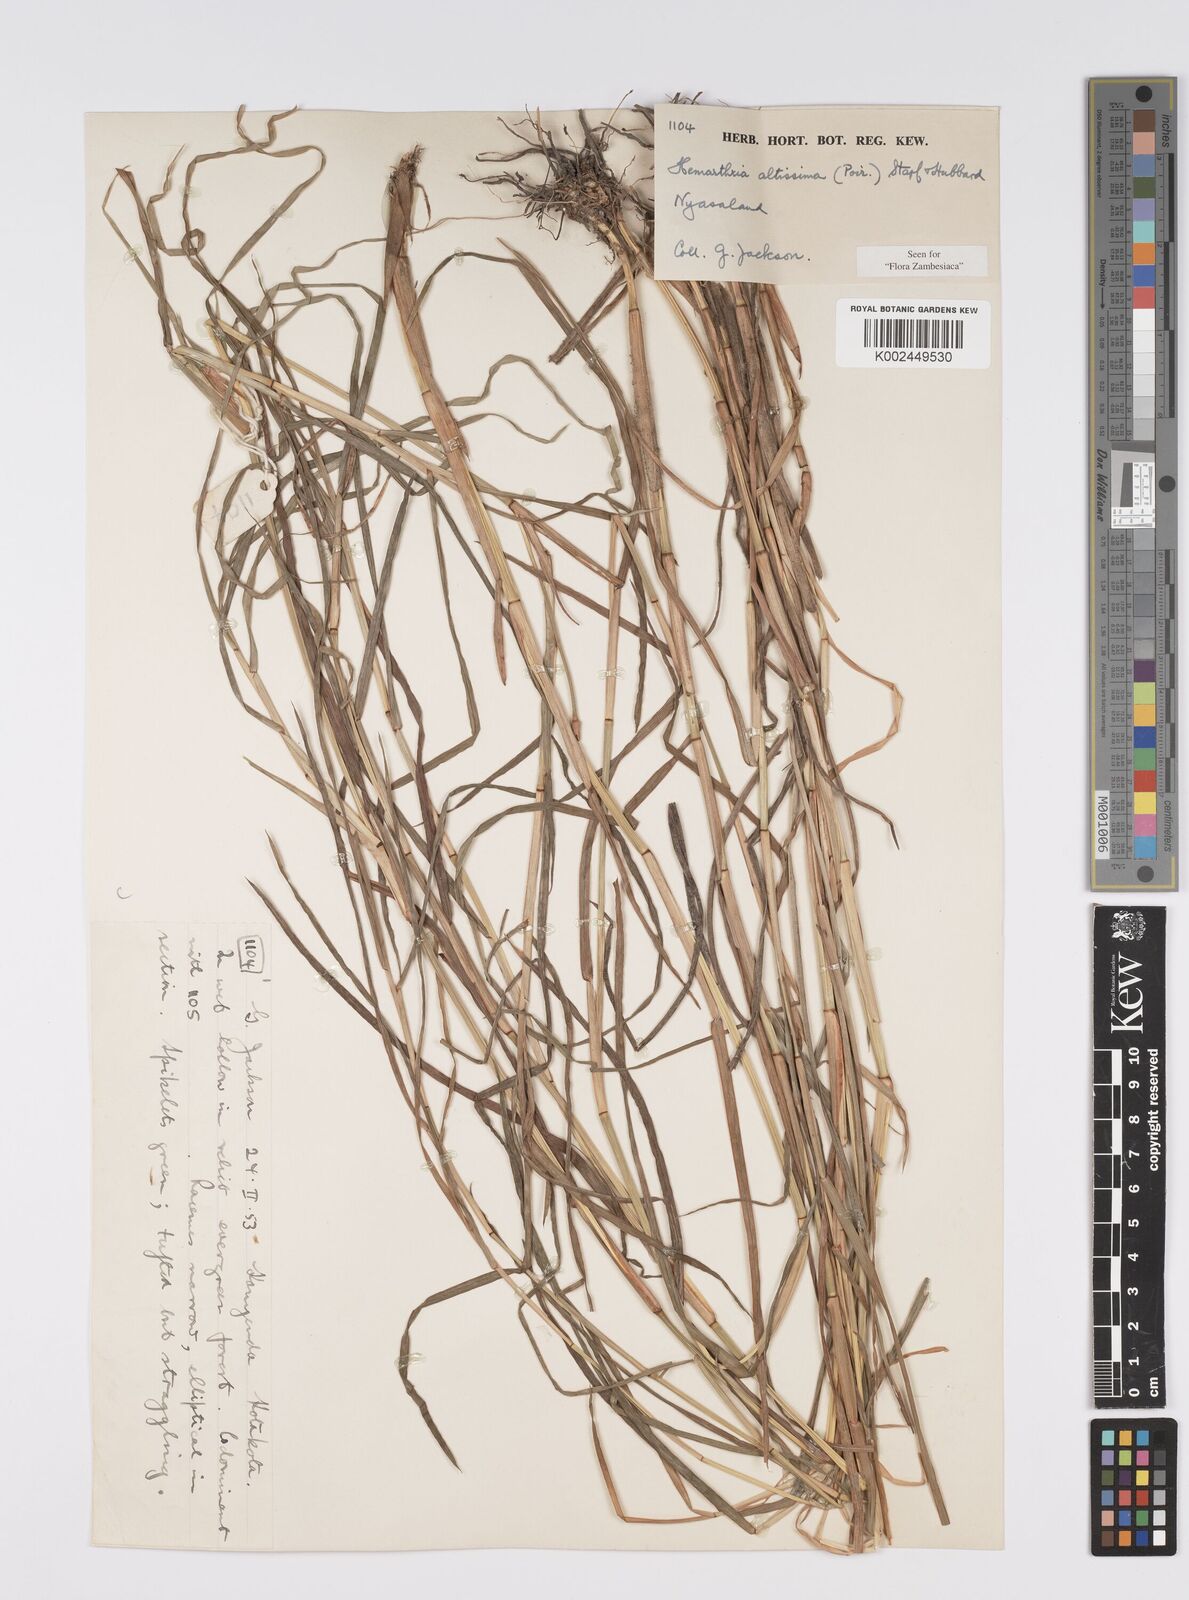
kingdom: Plantae
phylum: Tracheophyta
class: Liliopsida
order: Poales
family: Poaceae
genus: Hemarthria
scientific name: Hemarthria altissima
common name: African jointgrass
